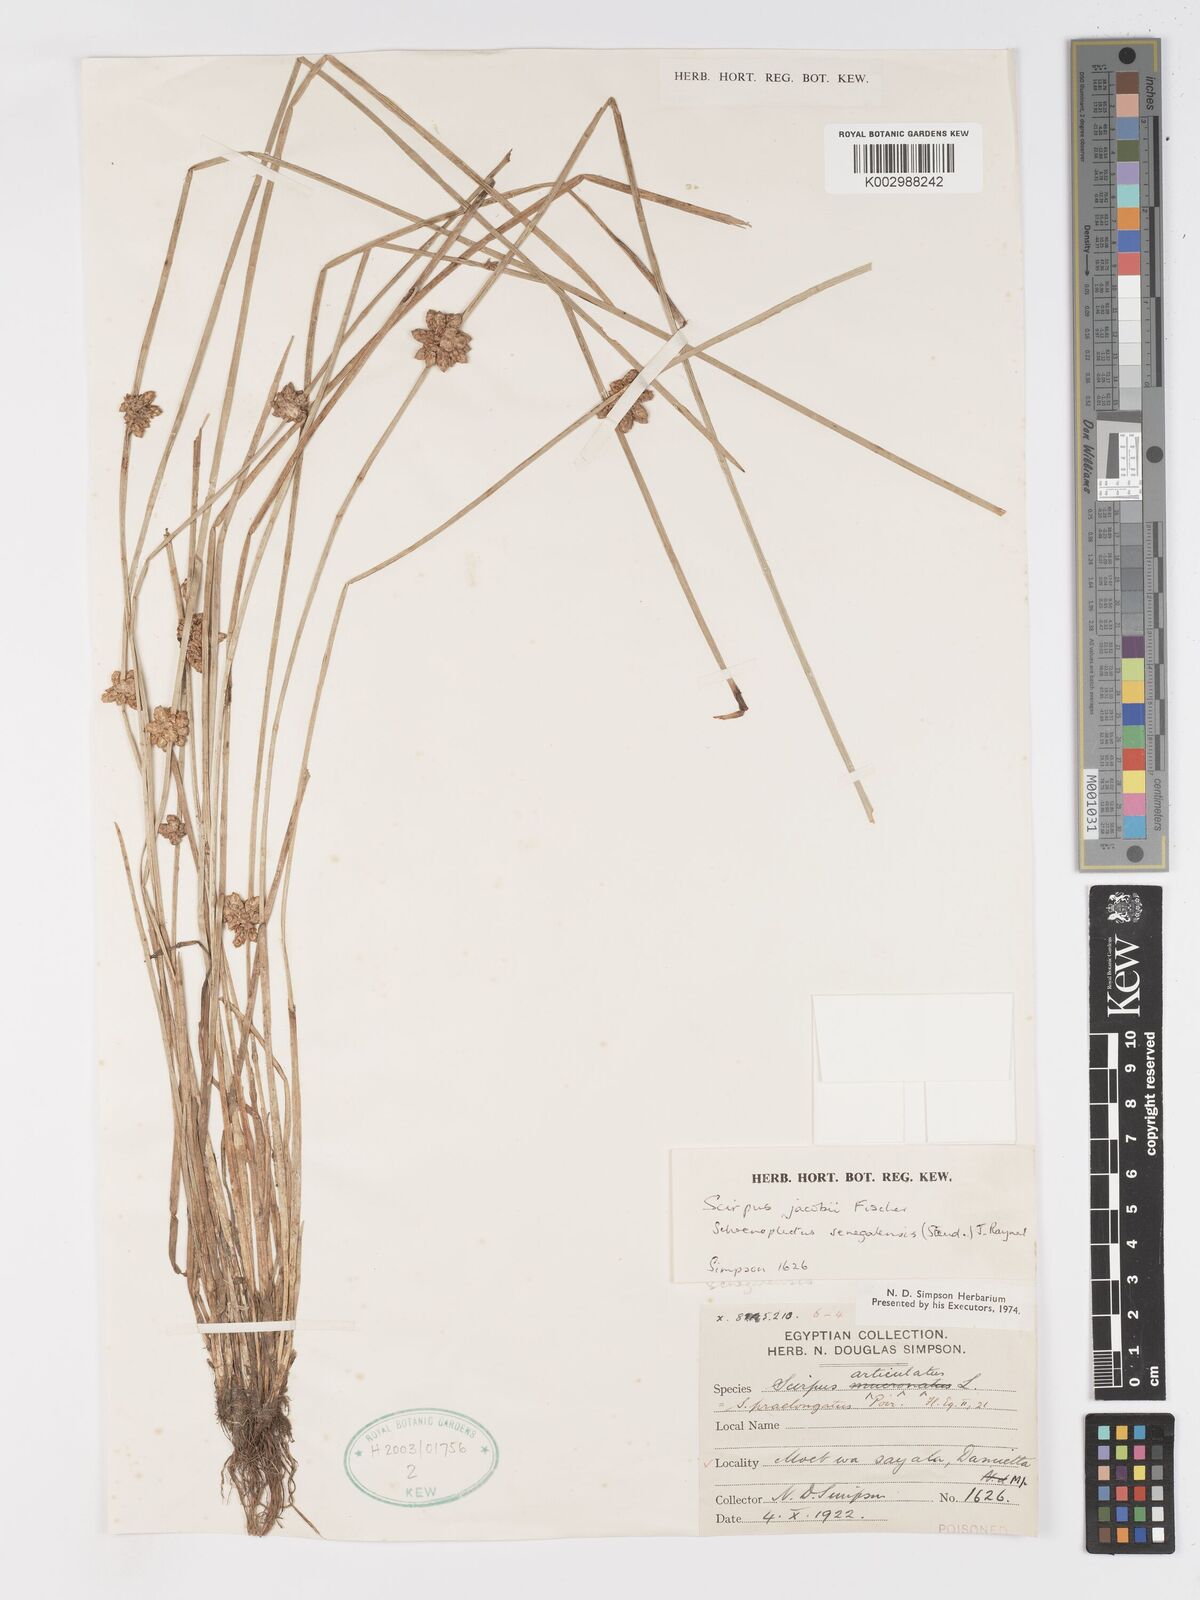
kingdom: Plantae
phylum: Tracheophyta
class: Liliopsida
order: Poales
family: Cyperaceae
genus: Schoenoplectiella
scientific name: Schoenoplectiella senegalensis
